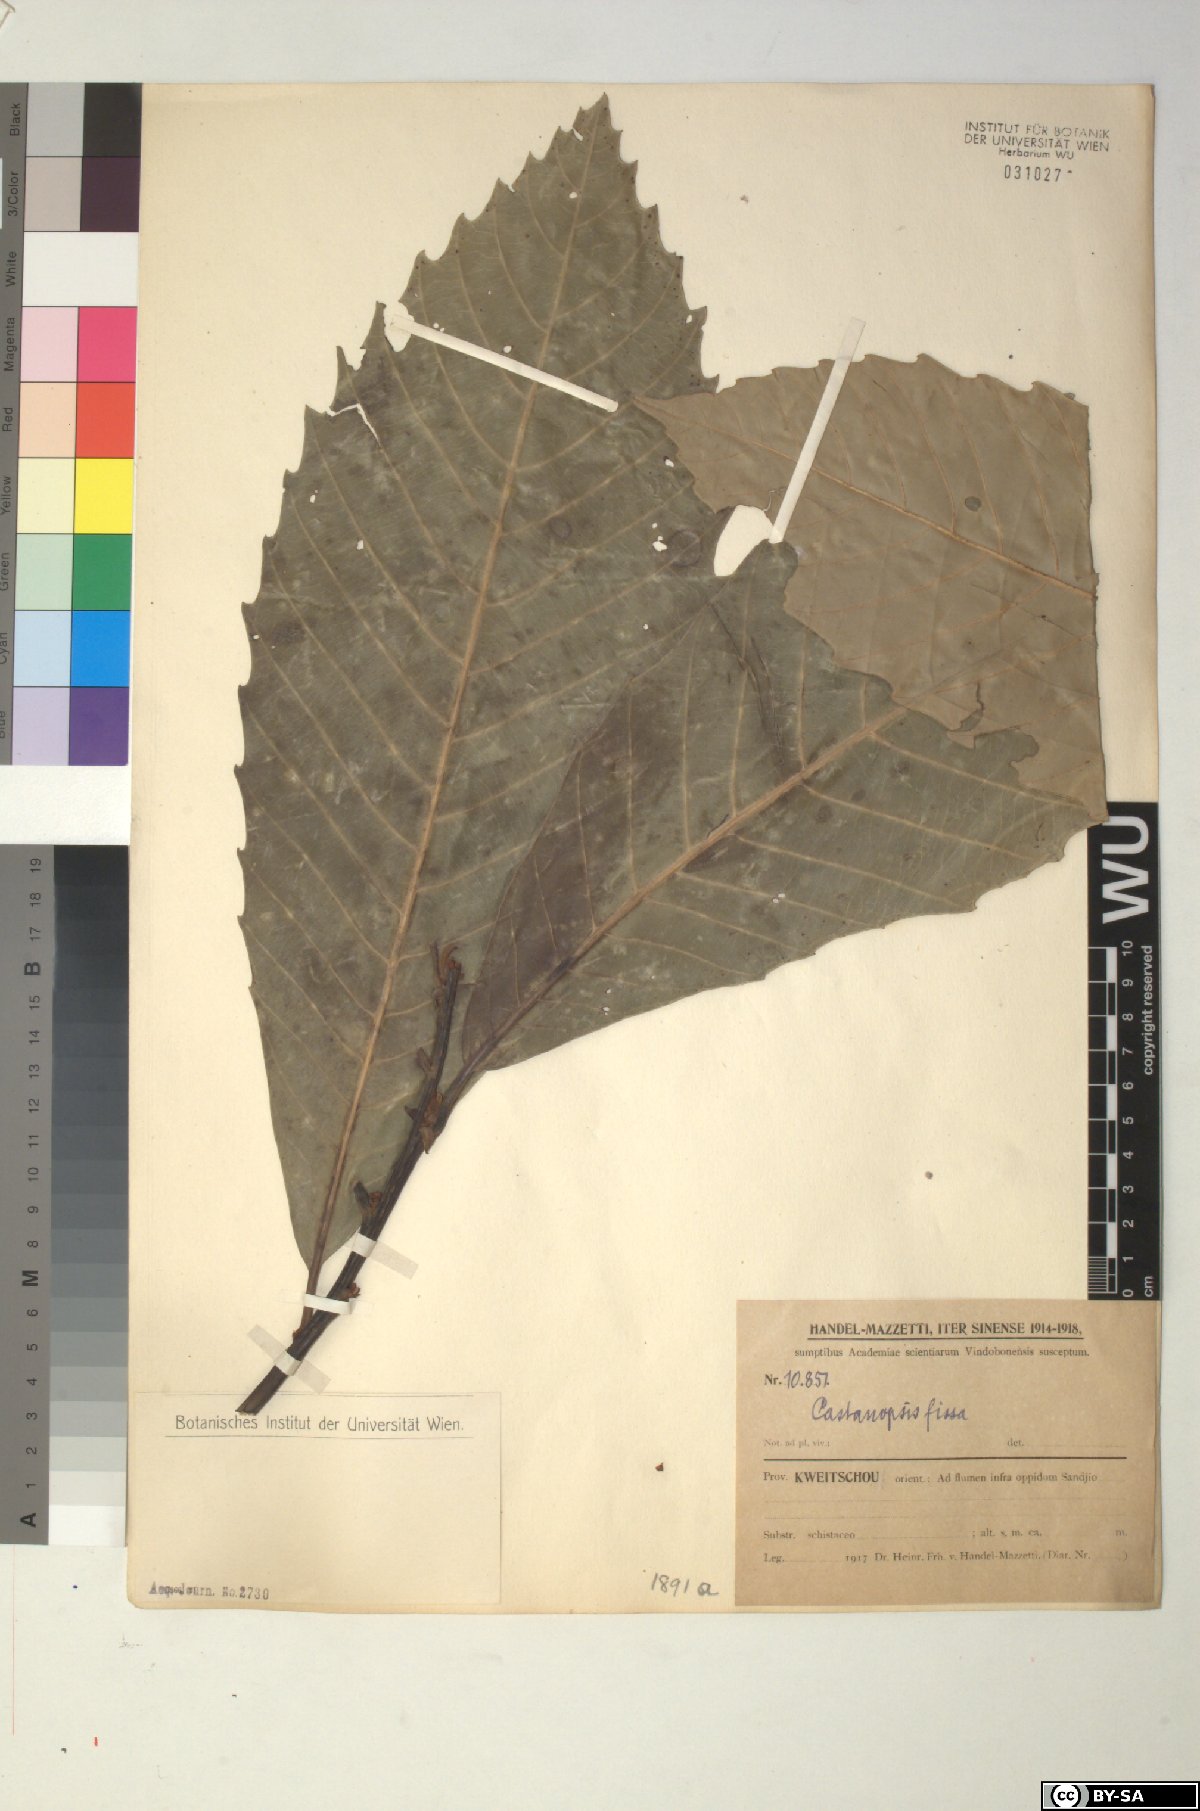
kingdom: Plantae
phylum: Tracheophyta
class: Magnoliopsida
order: Fagales
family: Fagaceae
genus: Castanopsis
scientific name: Castanopsis fissa
